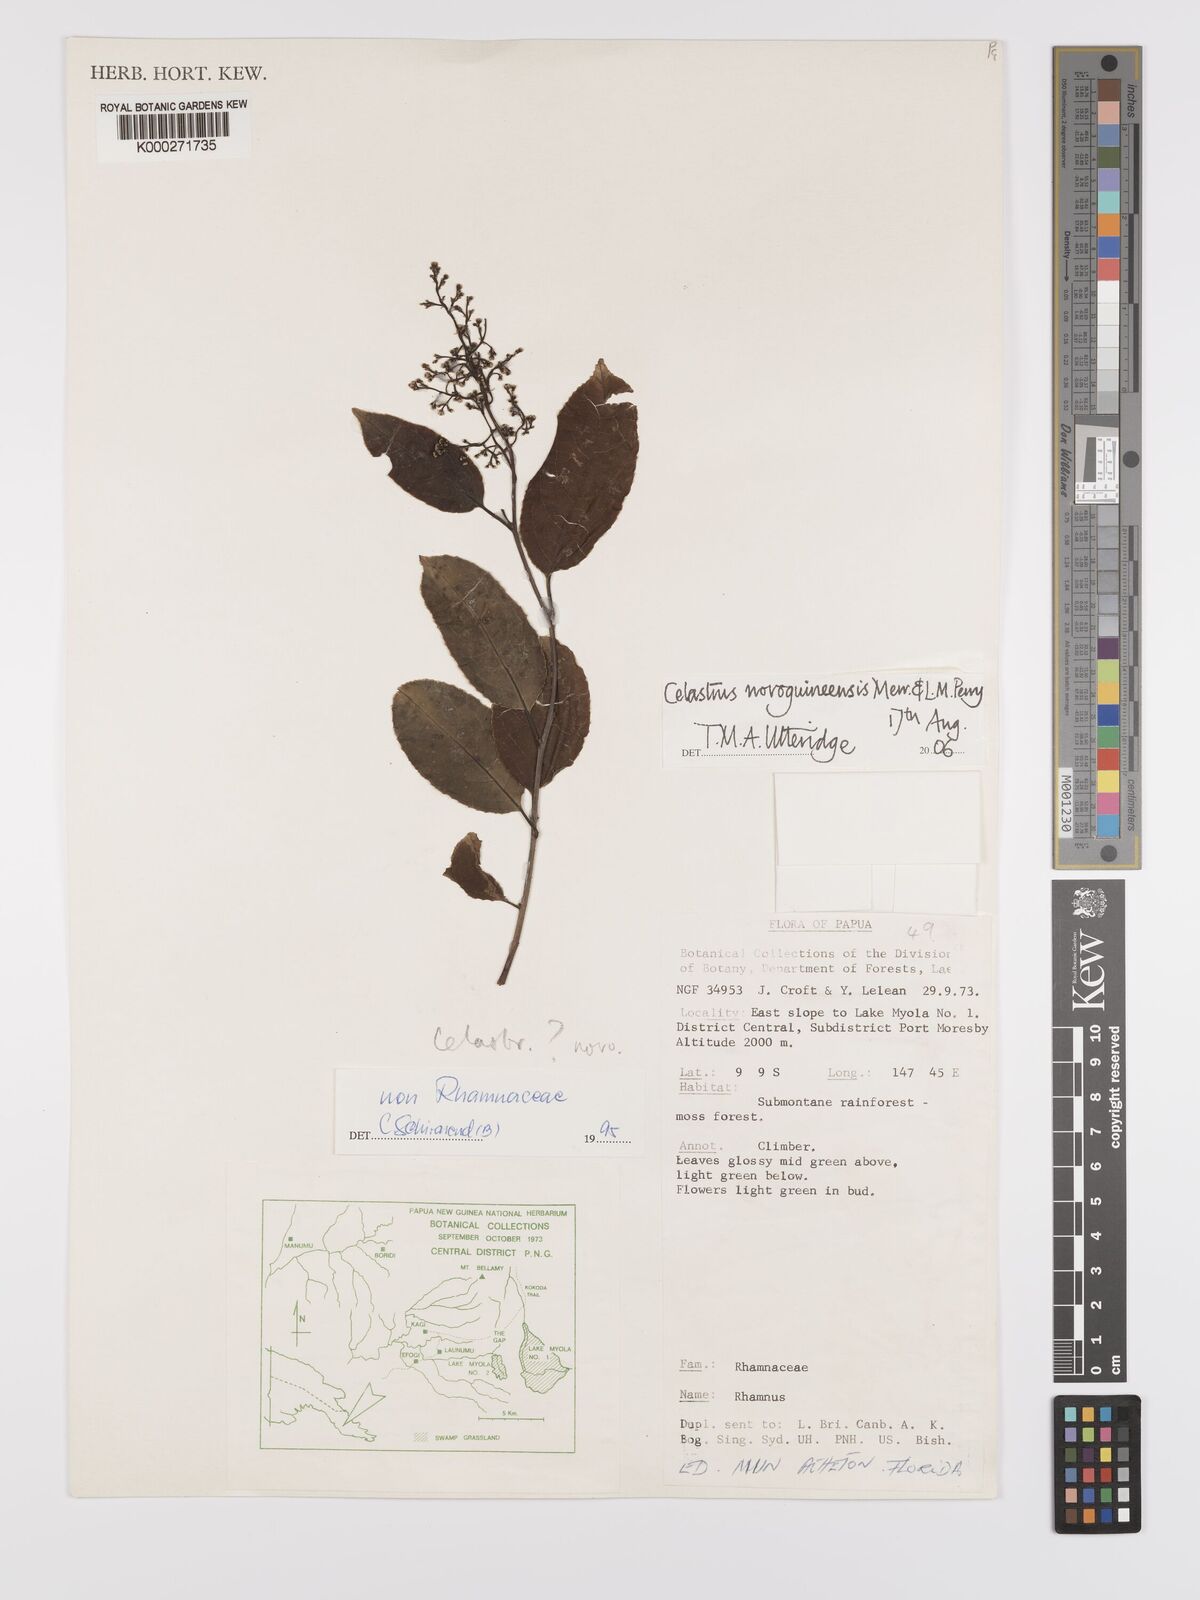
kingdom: Plantae
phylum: Tracheophyta
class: Magnoliopsida
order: Celastrales
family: Celastraceae
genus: Celastrus
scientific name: Celastrus novoguineensis
